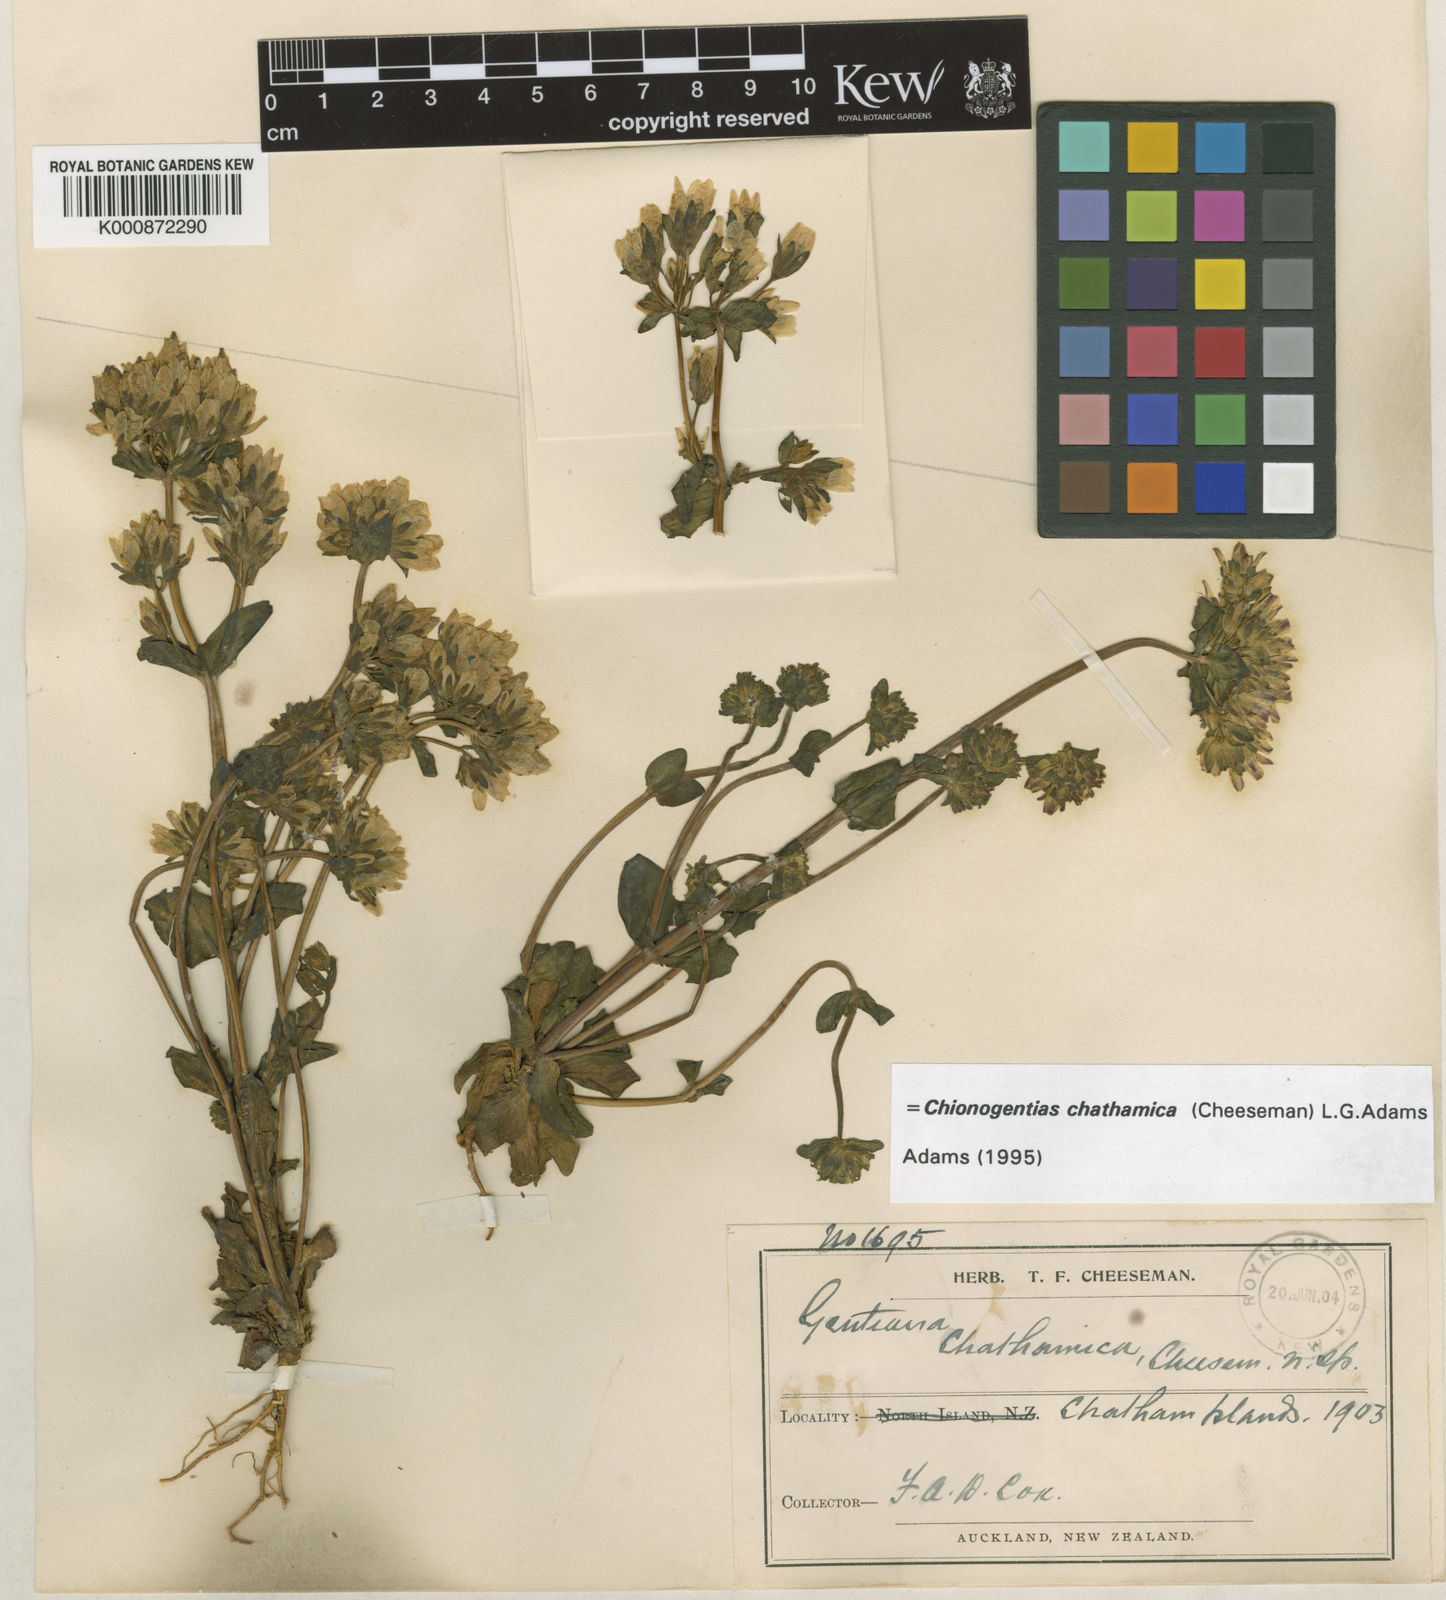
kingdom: Plantae
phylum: Tracheophyta
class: Magnoliopsida
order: Gentianales
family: Gentianaceae
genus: Gentianella
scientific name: Gentianella chathamica
